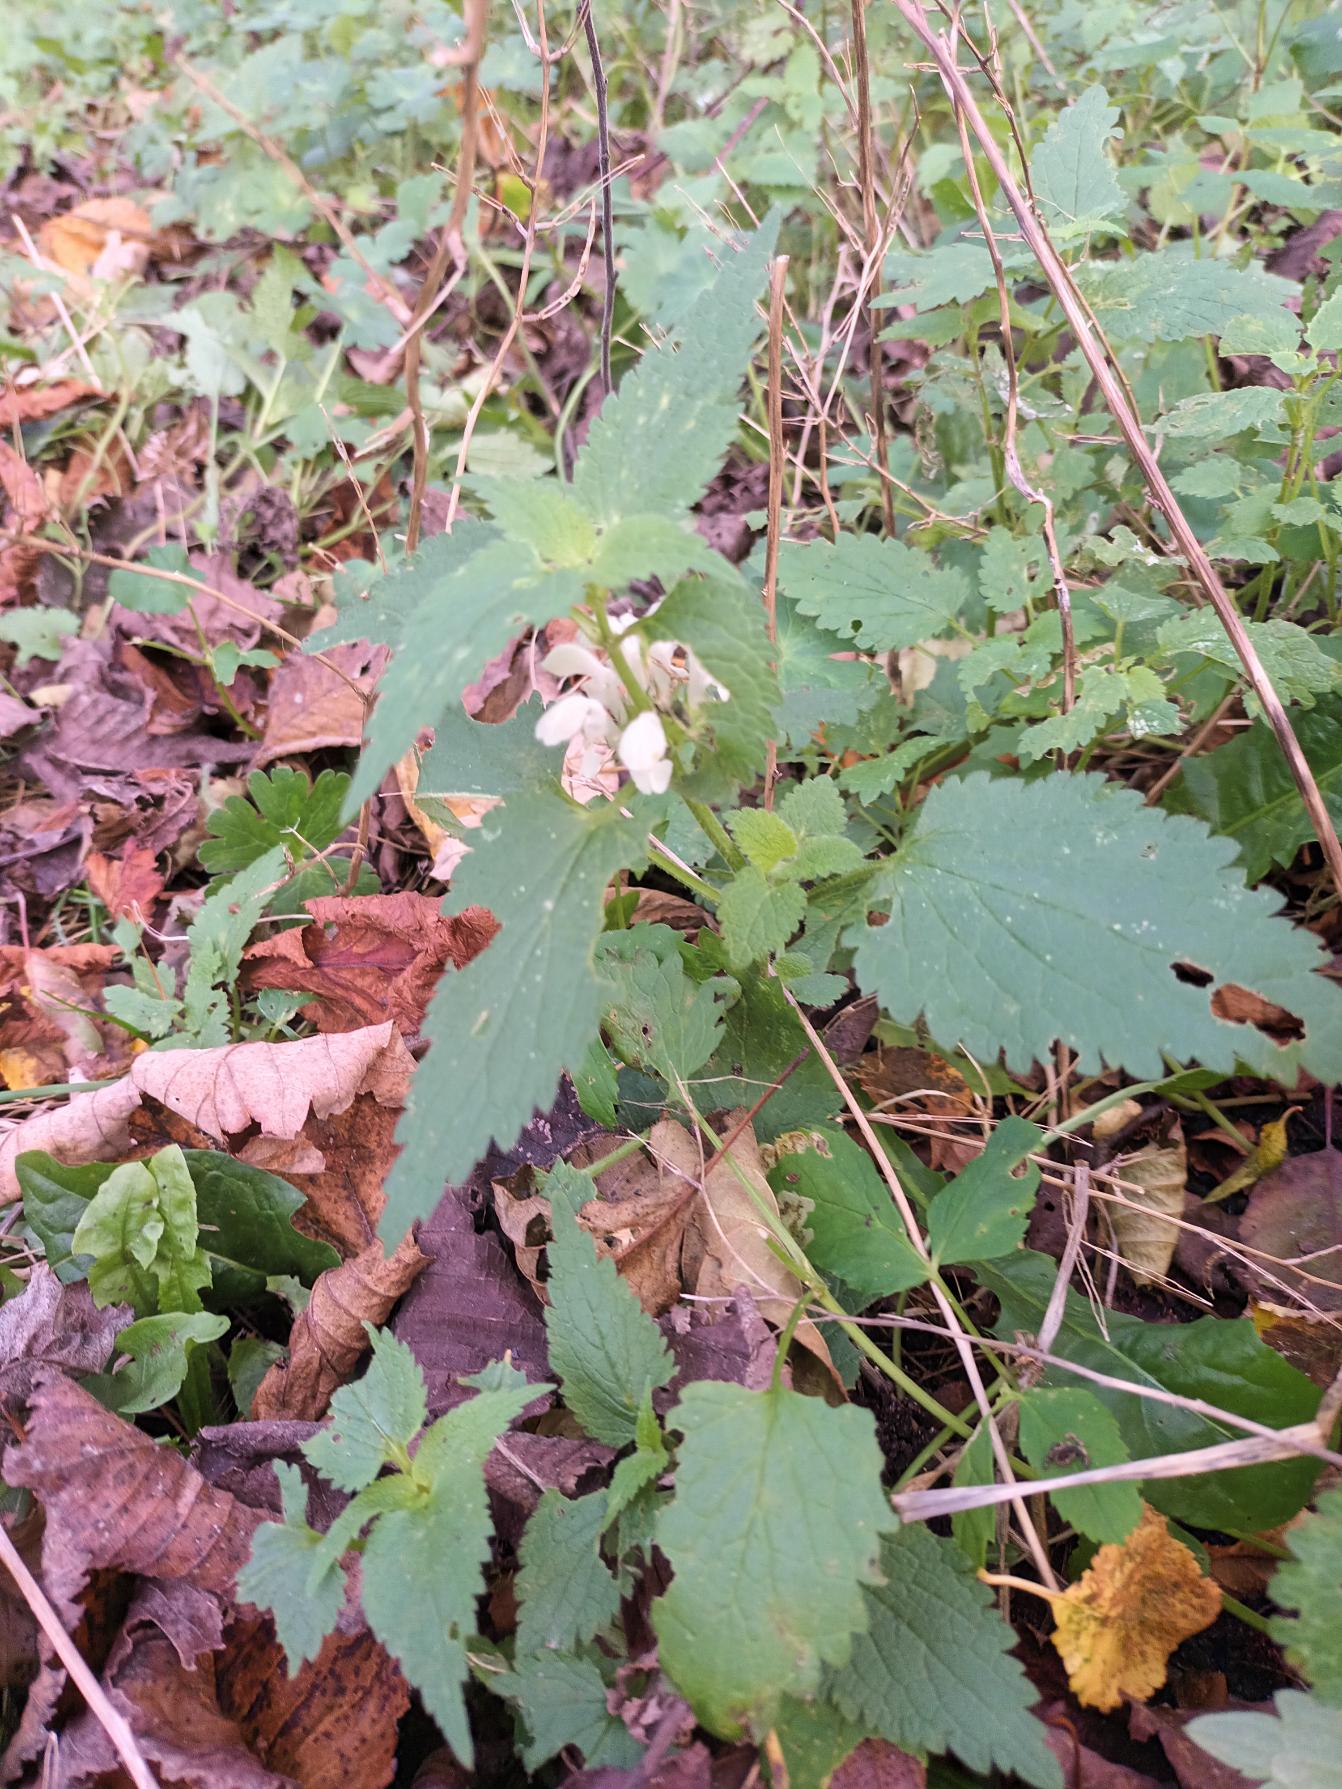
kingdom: Plantae
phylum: Tracheophyta
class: Magnoliopsida
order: Lamiales
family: Lamiaceae
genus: Lamium
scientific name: Lamium album
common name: Døvnælde
